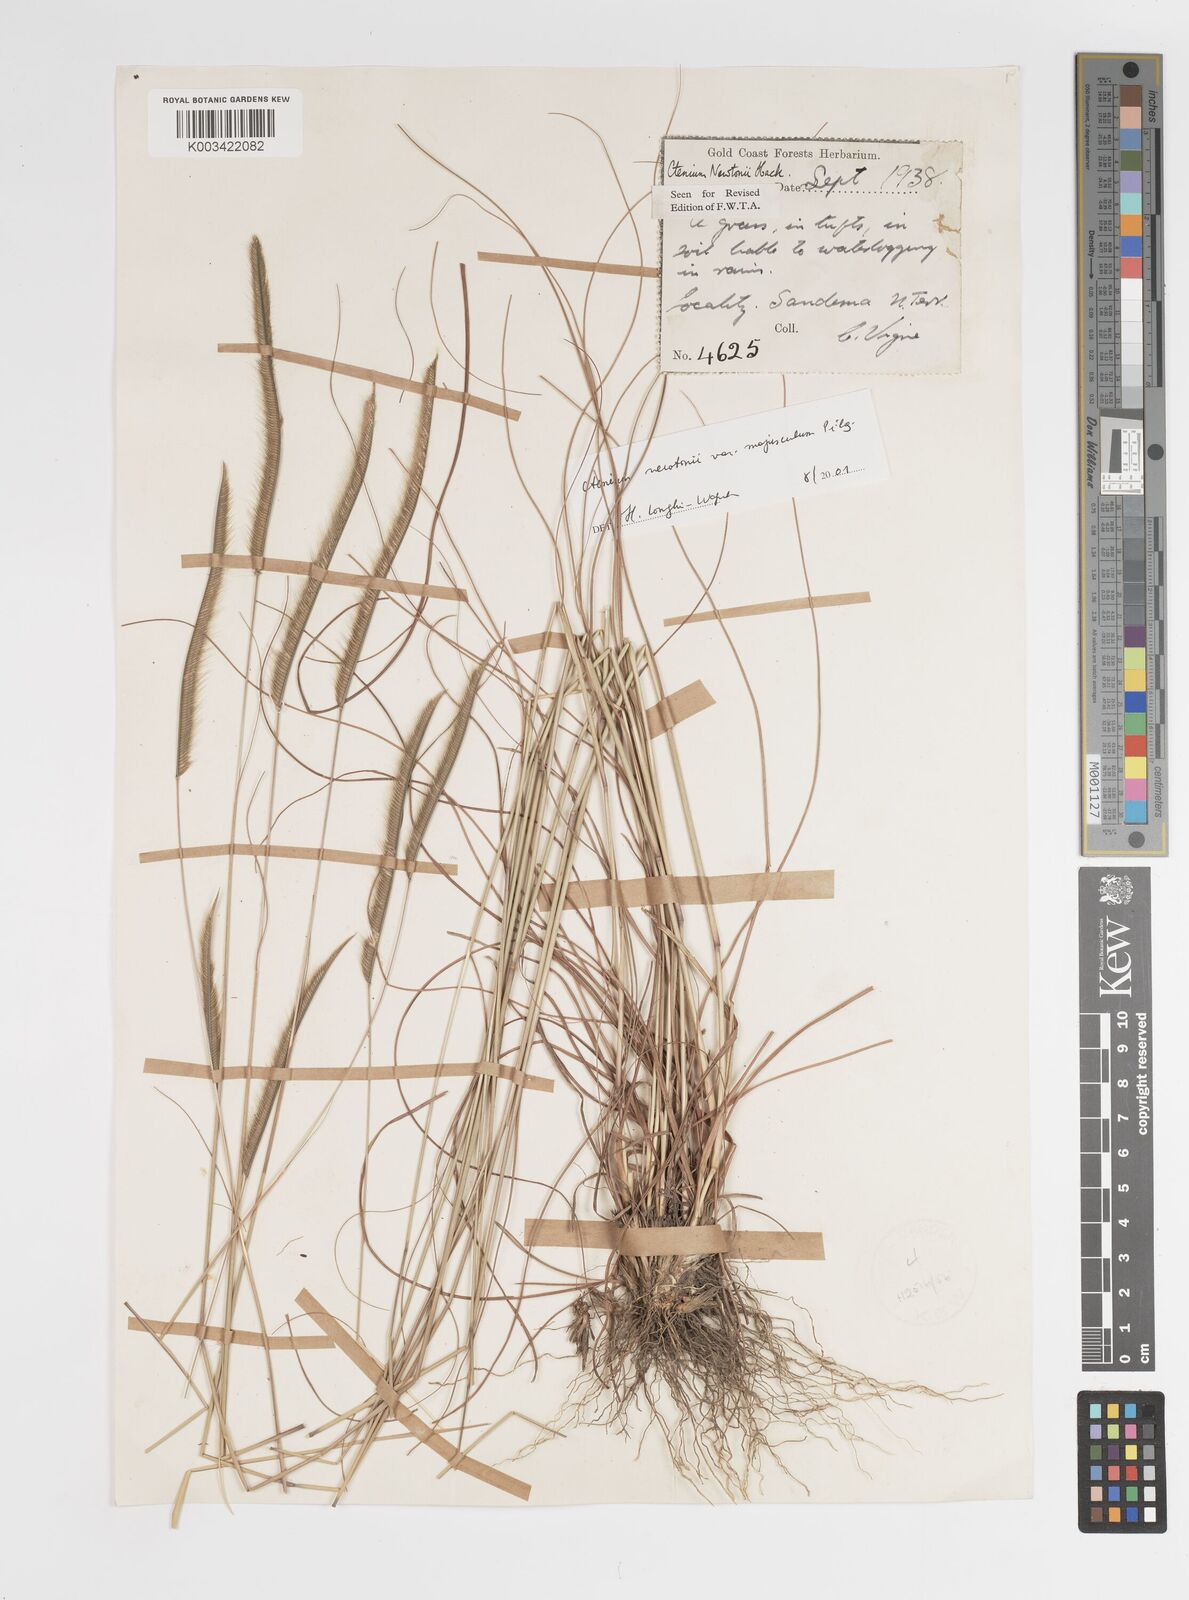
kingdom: Plantae
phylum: Tracheophyta
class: Liliopsida
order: Poales
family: Poaceae
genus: Ctenium
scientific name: Ctenium newtonii
